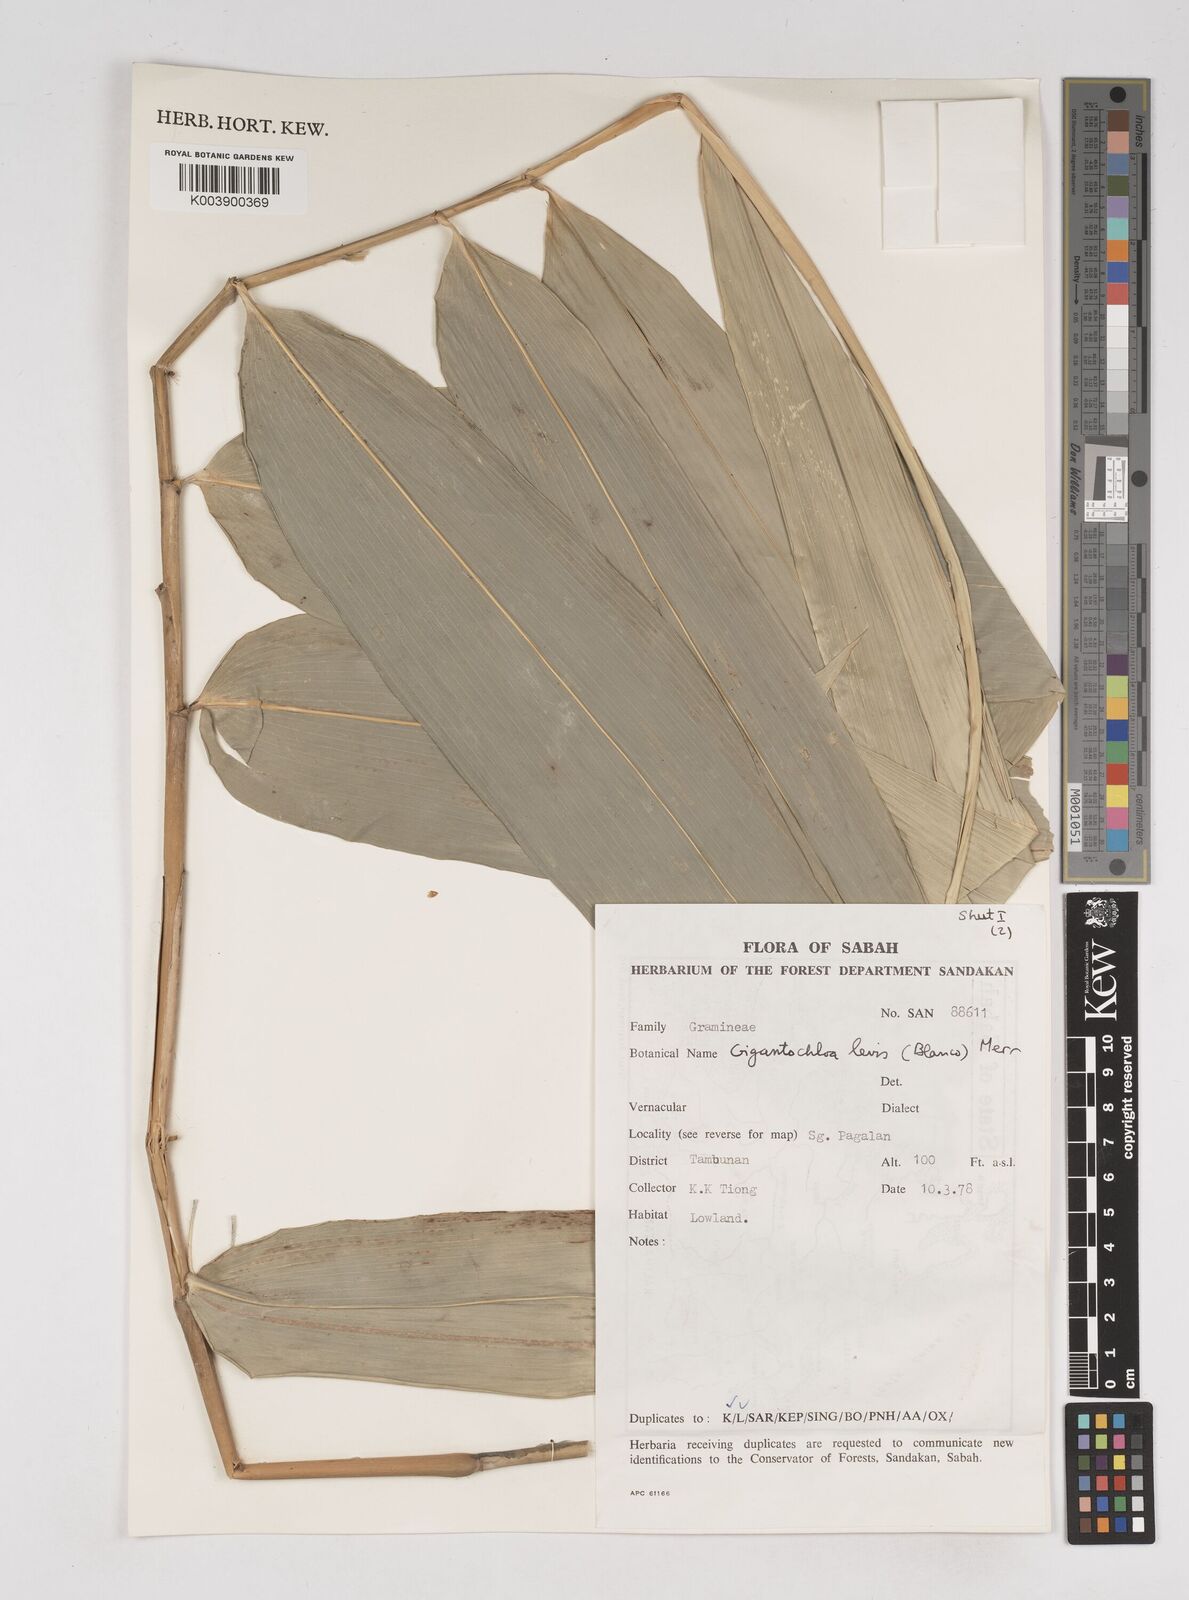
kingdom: Plantae
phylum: Tracheophyta
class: Liliopsida
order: Poales
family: Poaceae
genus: Gigantochloa
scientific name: Gigantochloa
